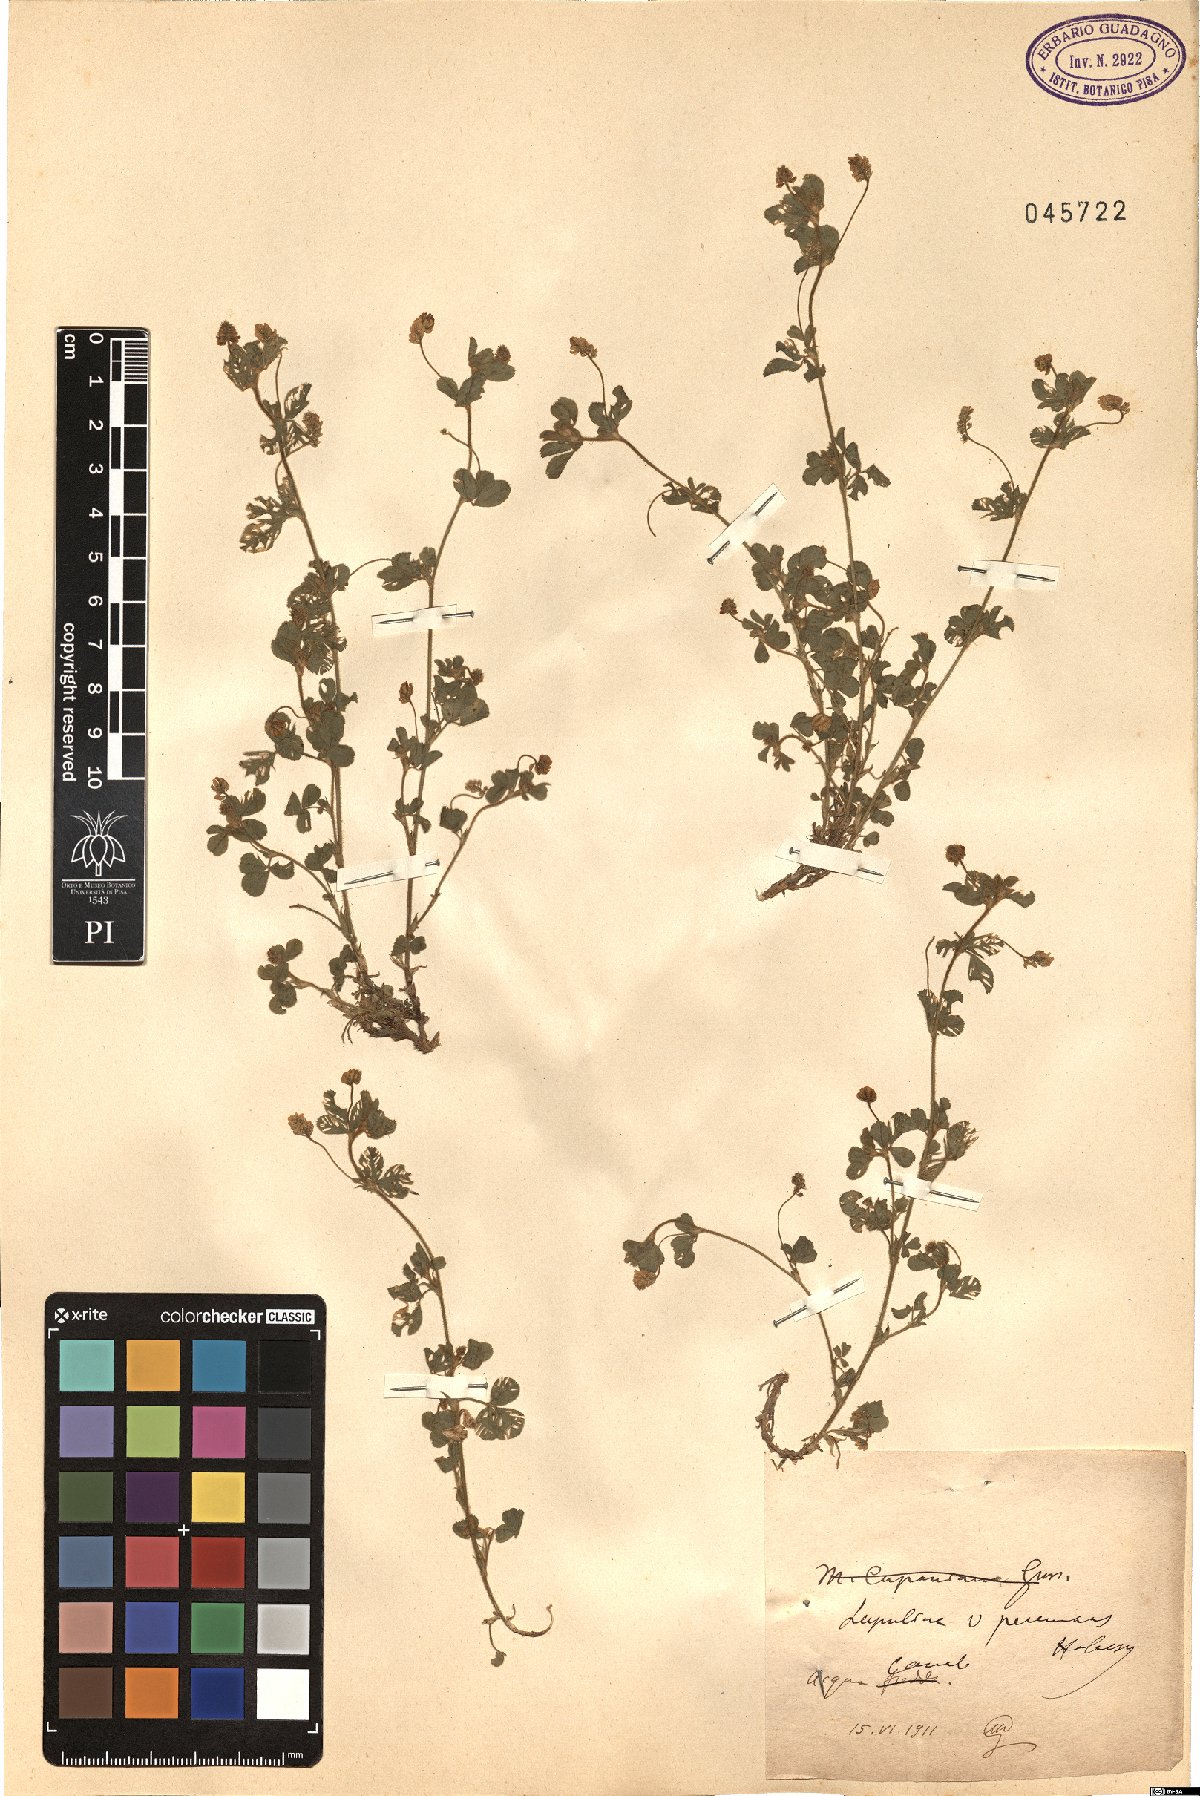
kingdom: Plantae
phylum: Tracheophyta
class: Magnoliopsida
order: Fabales
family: Fabaceae
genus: Medicago
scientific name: Medicago lupulina
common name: Black medick
